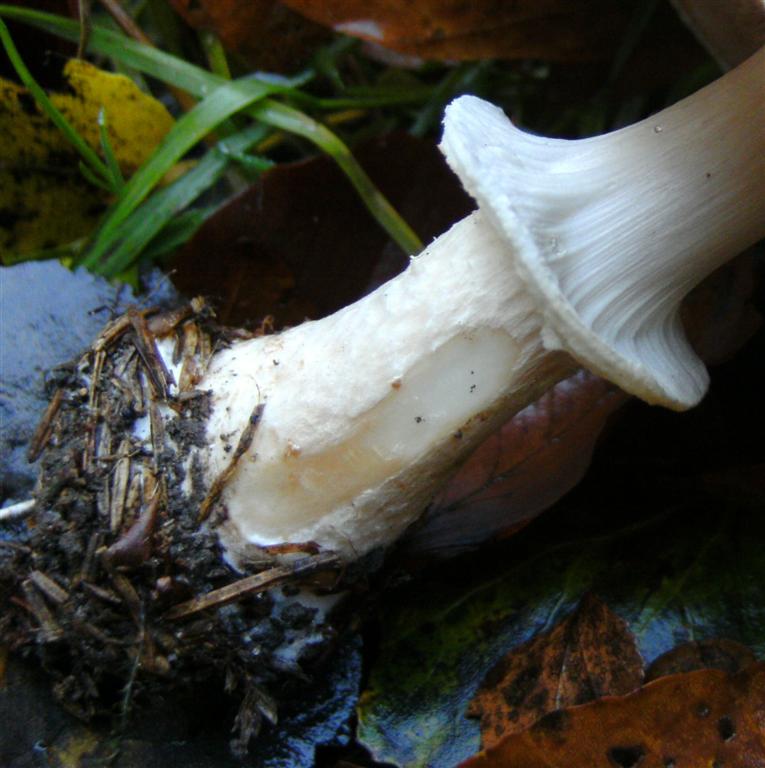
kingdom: Fungi
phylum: Basidiomycota
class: Agaricomycetes
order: Agaricales
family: Agaricaceae
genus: Agaricus
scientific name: Agaricus impudicus
